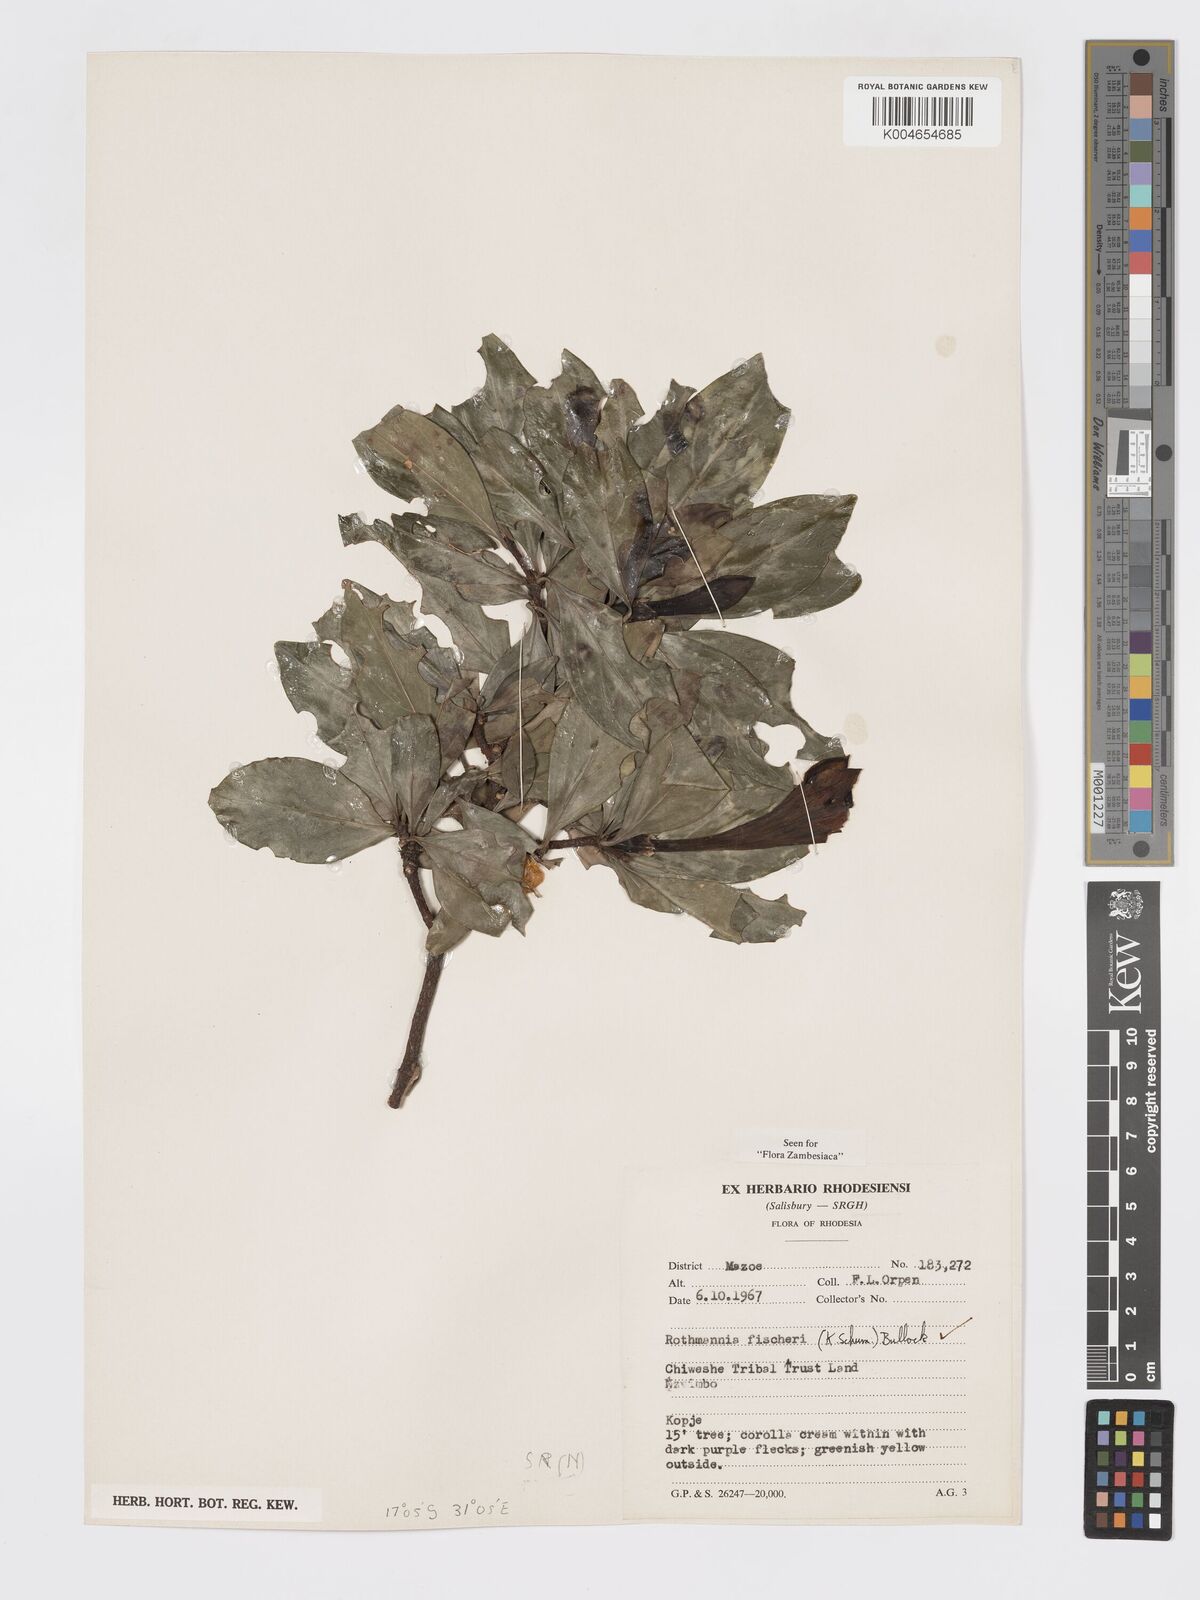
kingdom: Plantae
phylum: Tracheophyta
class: Magnoliopsida
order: Gentianales
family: Rubiaceae
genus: Rothmannia
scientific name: Rothmannia fischeri
